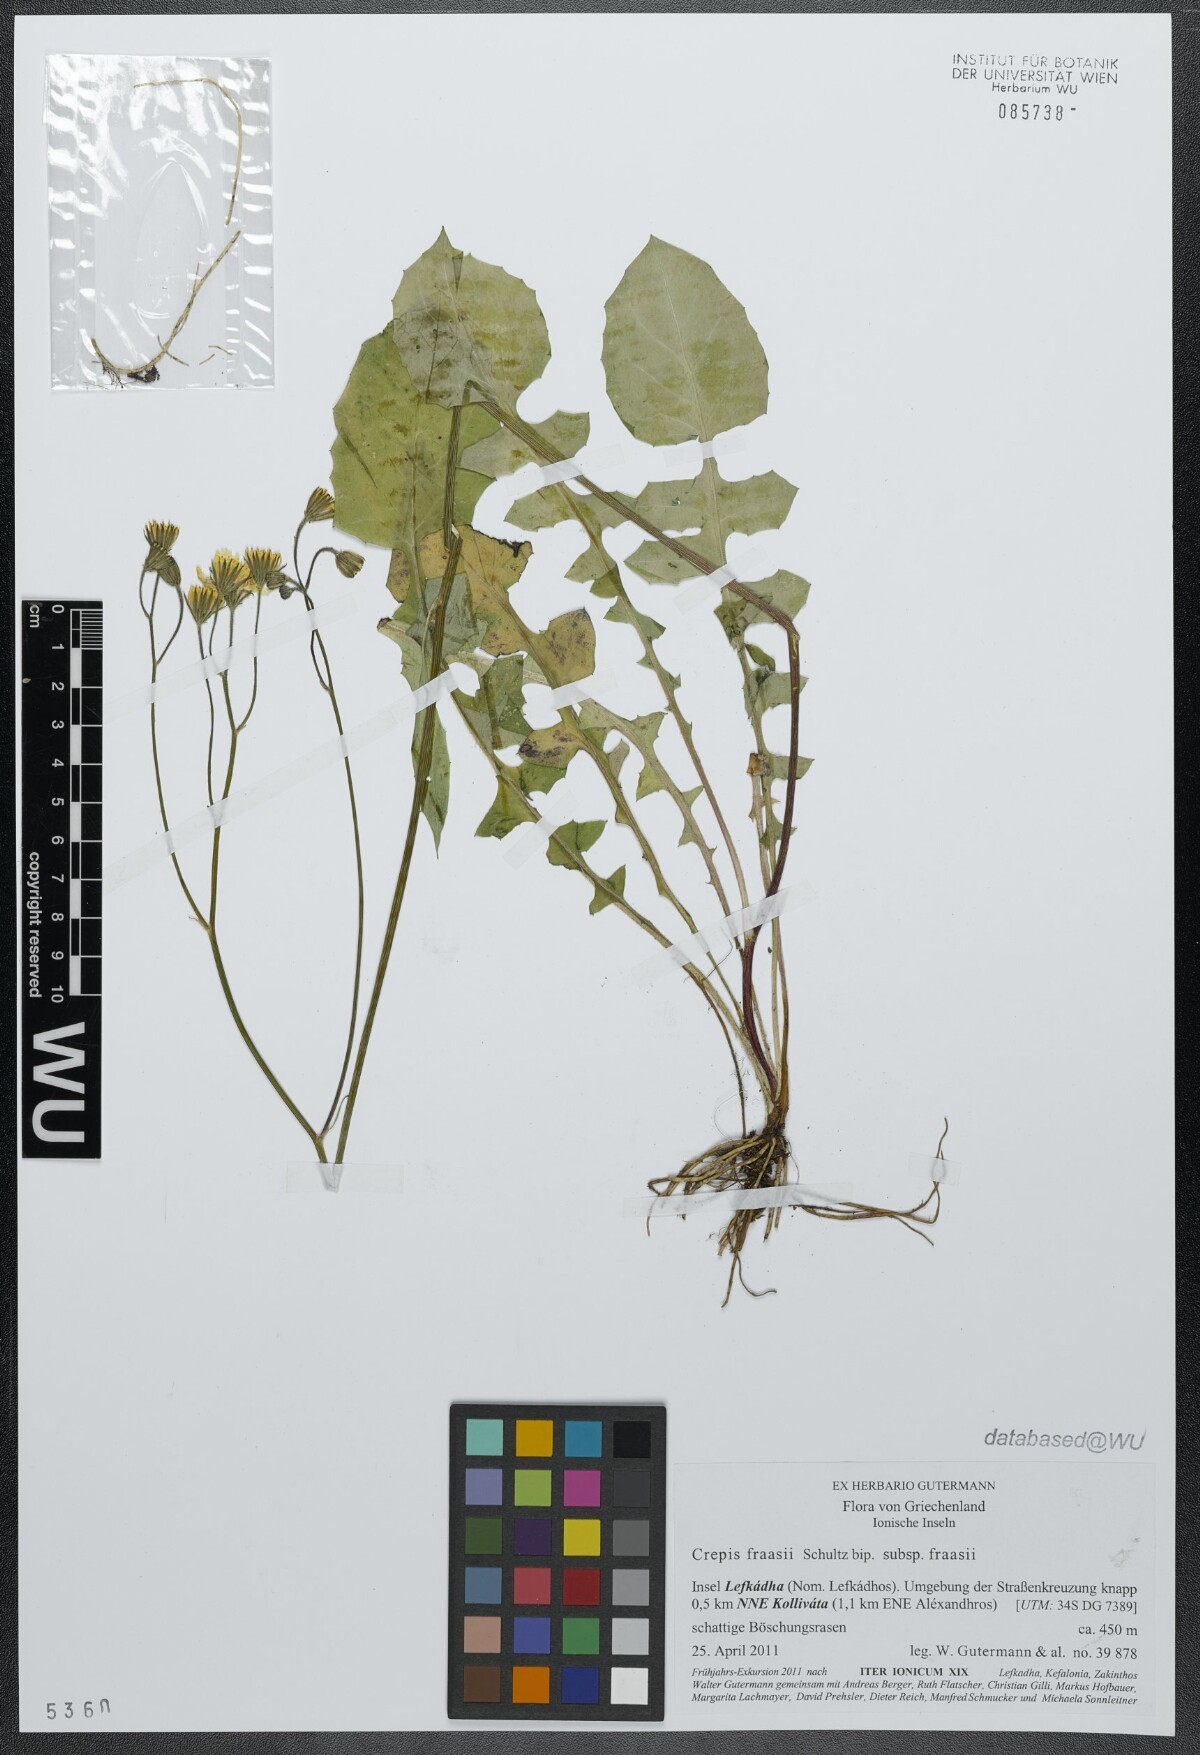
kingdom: Plantae
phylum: Tracheophyta
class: Magnoliopsida
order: Asterales
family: Asteraceae
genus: Crepis
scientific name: Crepis fraasii
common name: Hawk's-beard
